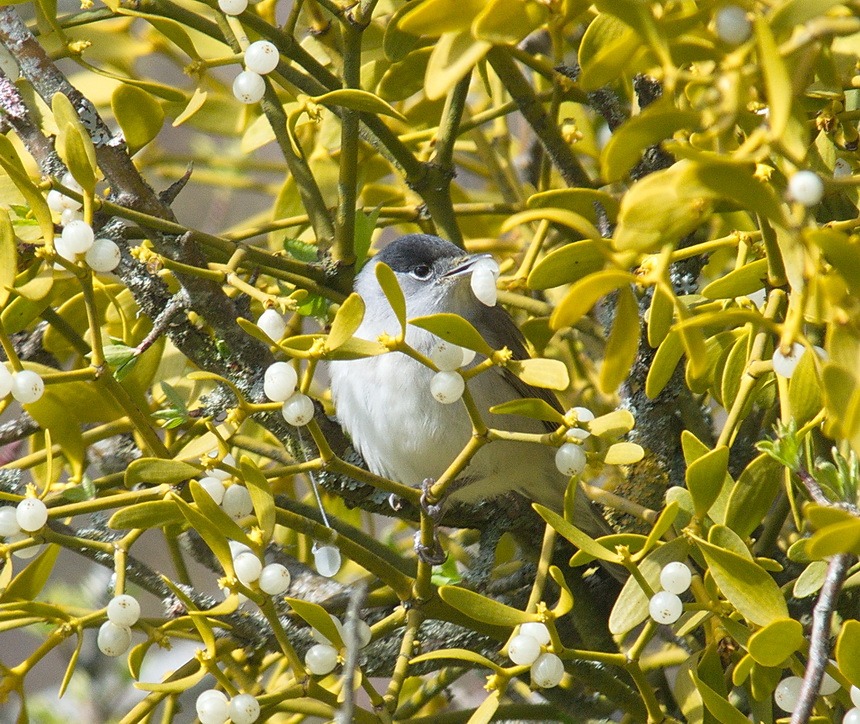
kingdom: Animalia
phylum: Chordata
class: Aves
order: Passeriformes
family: Sylviidae
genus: Sylvia
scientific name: Sylvia atricapilla
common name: Munk
